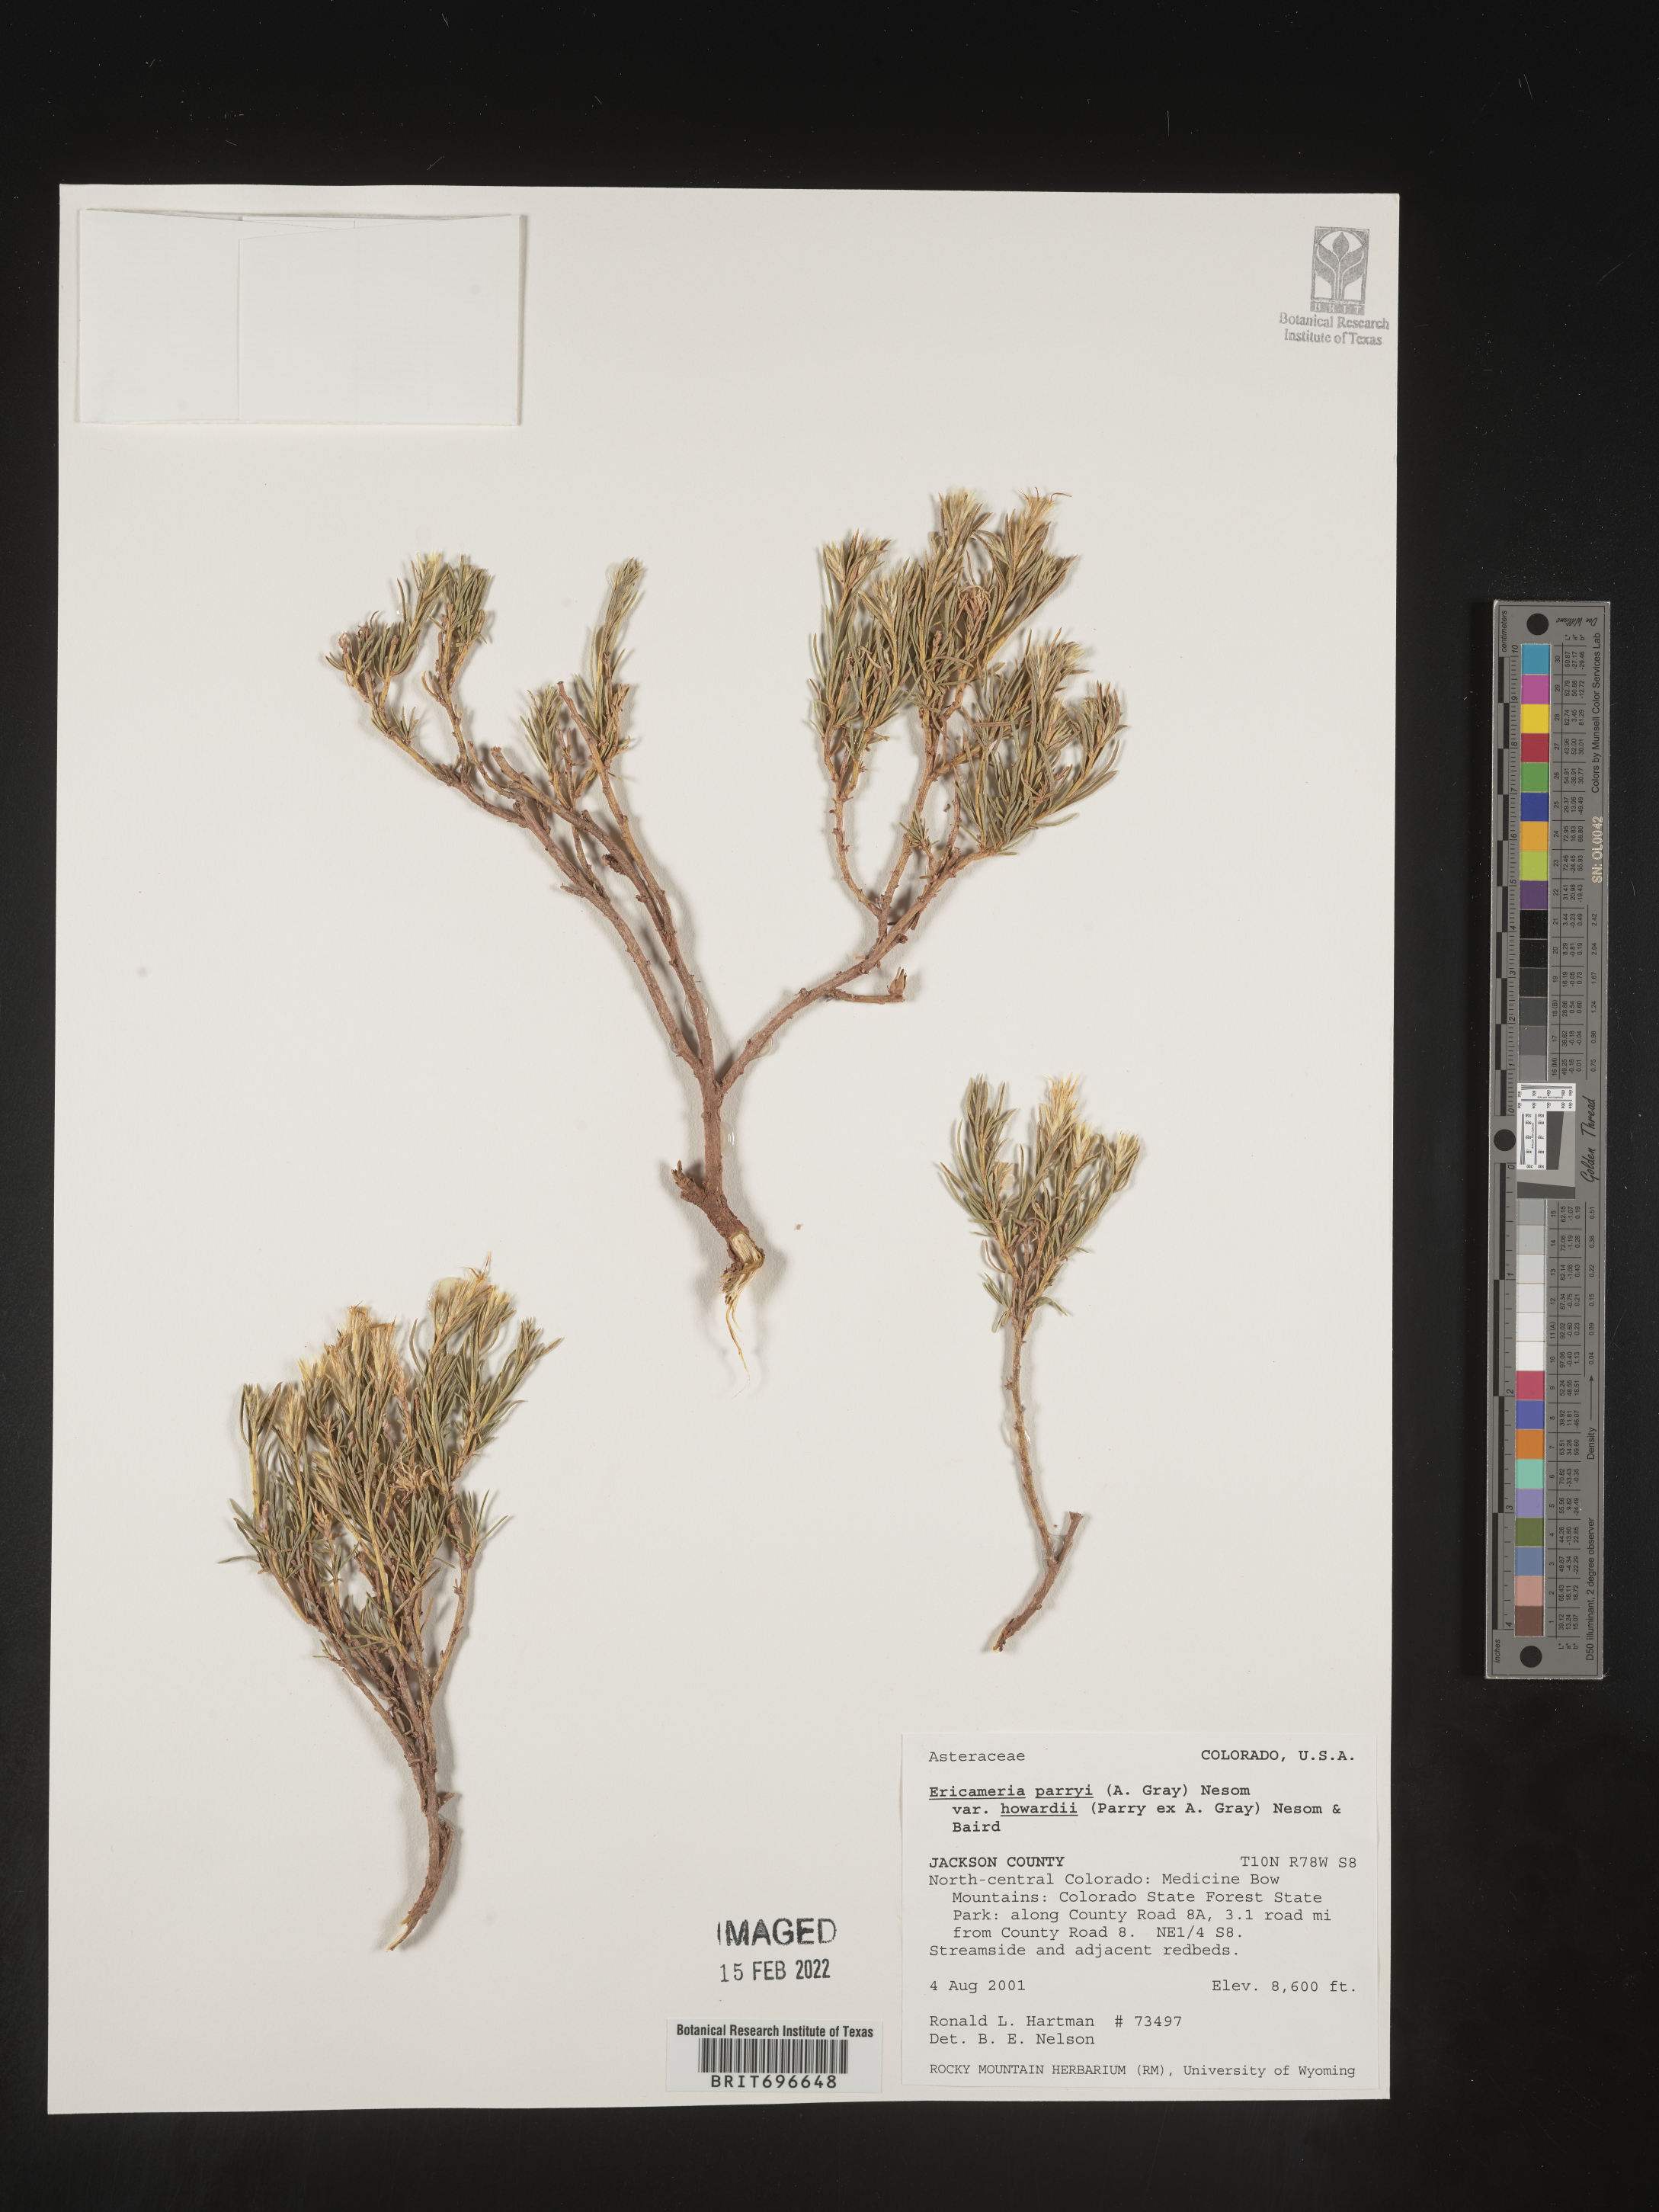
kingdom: Plantae
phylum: Tracheophyta
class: Magnoliopsida
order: Asterales
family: Asteraceae
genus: Ericameria
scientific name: Ericameria parryi
